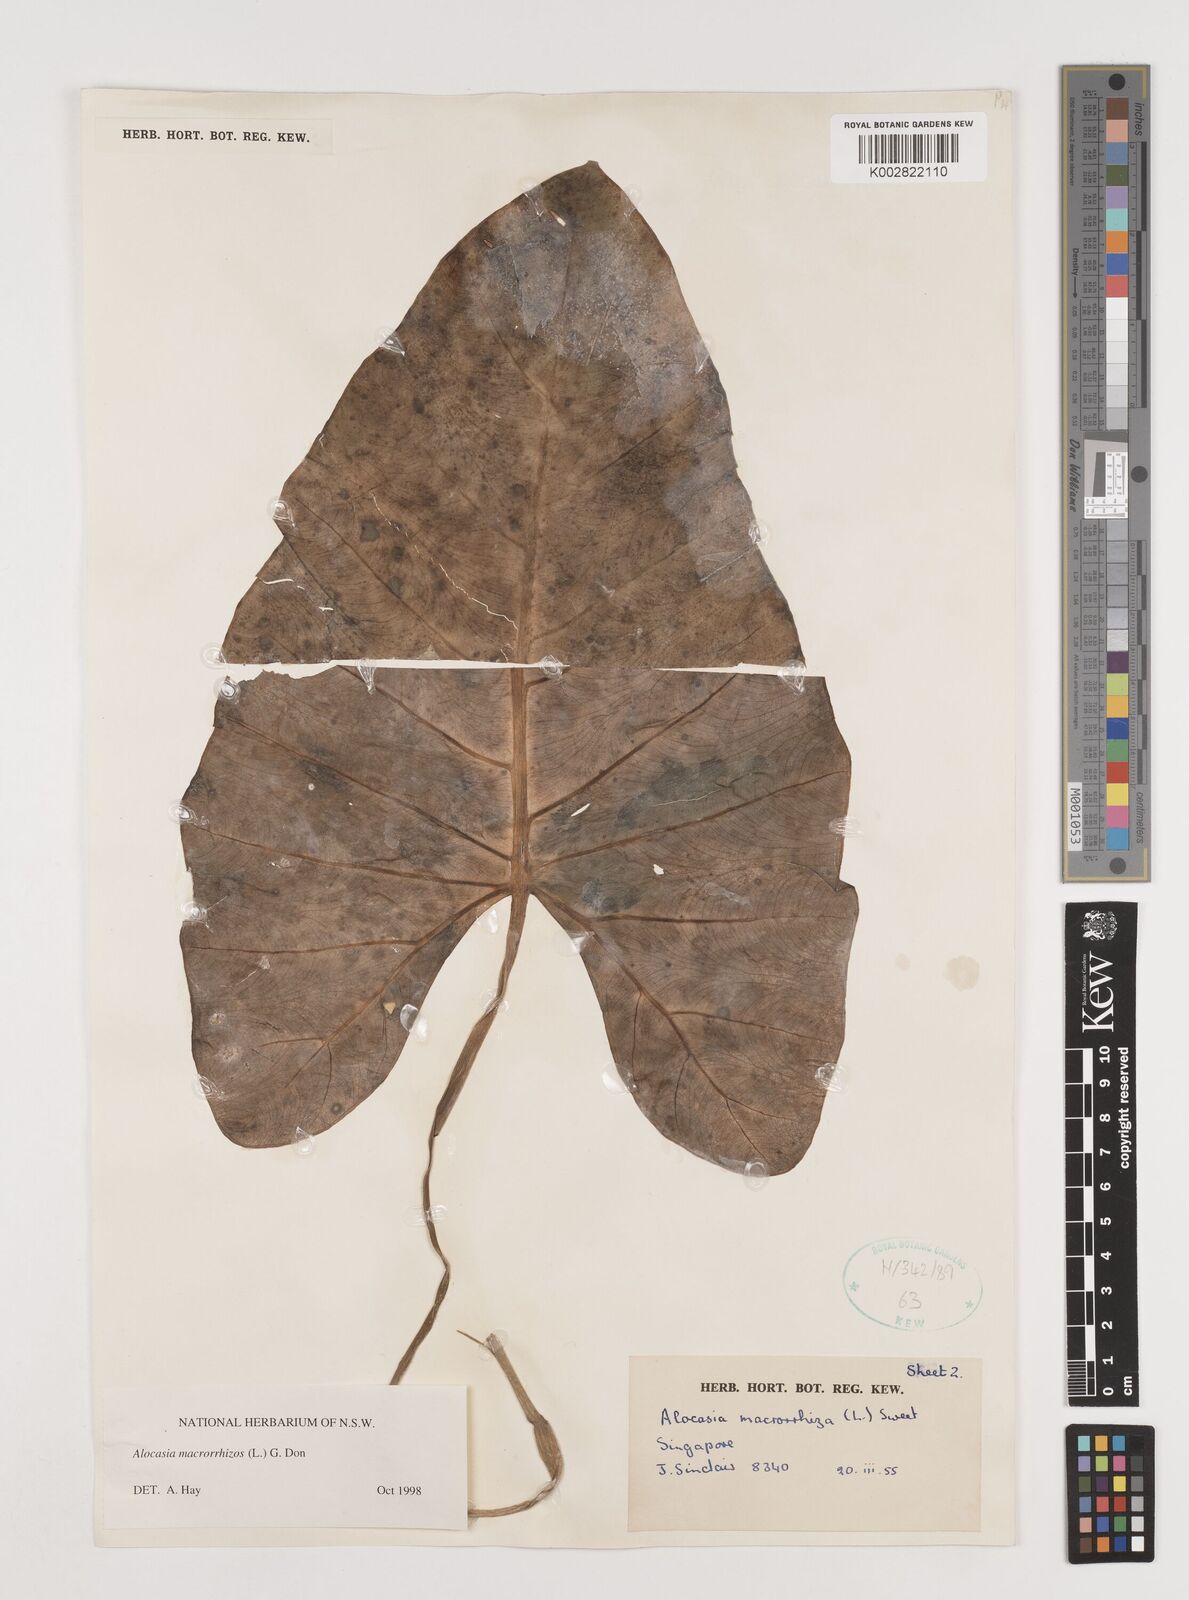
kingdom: Plantae
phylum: Tracheophyta
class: Liliopsida
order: Alismatales
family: Araceae
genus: Alocasia
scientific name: Alocasia macrorrhizos
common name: Giant taro
